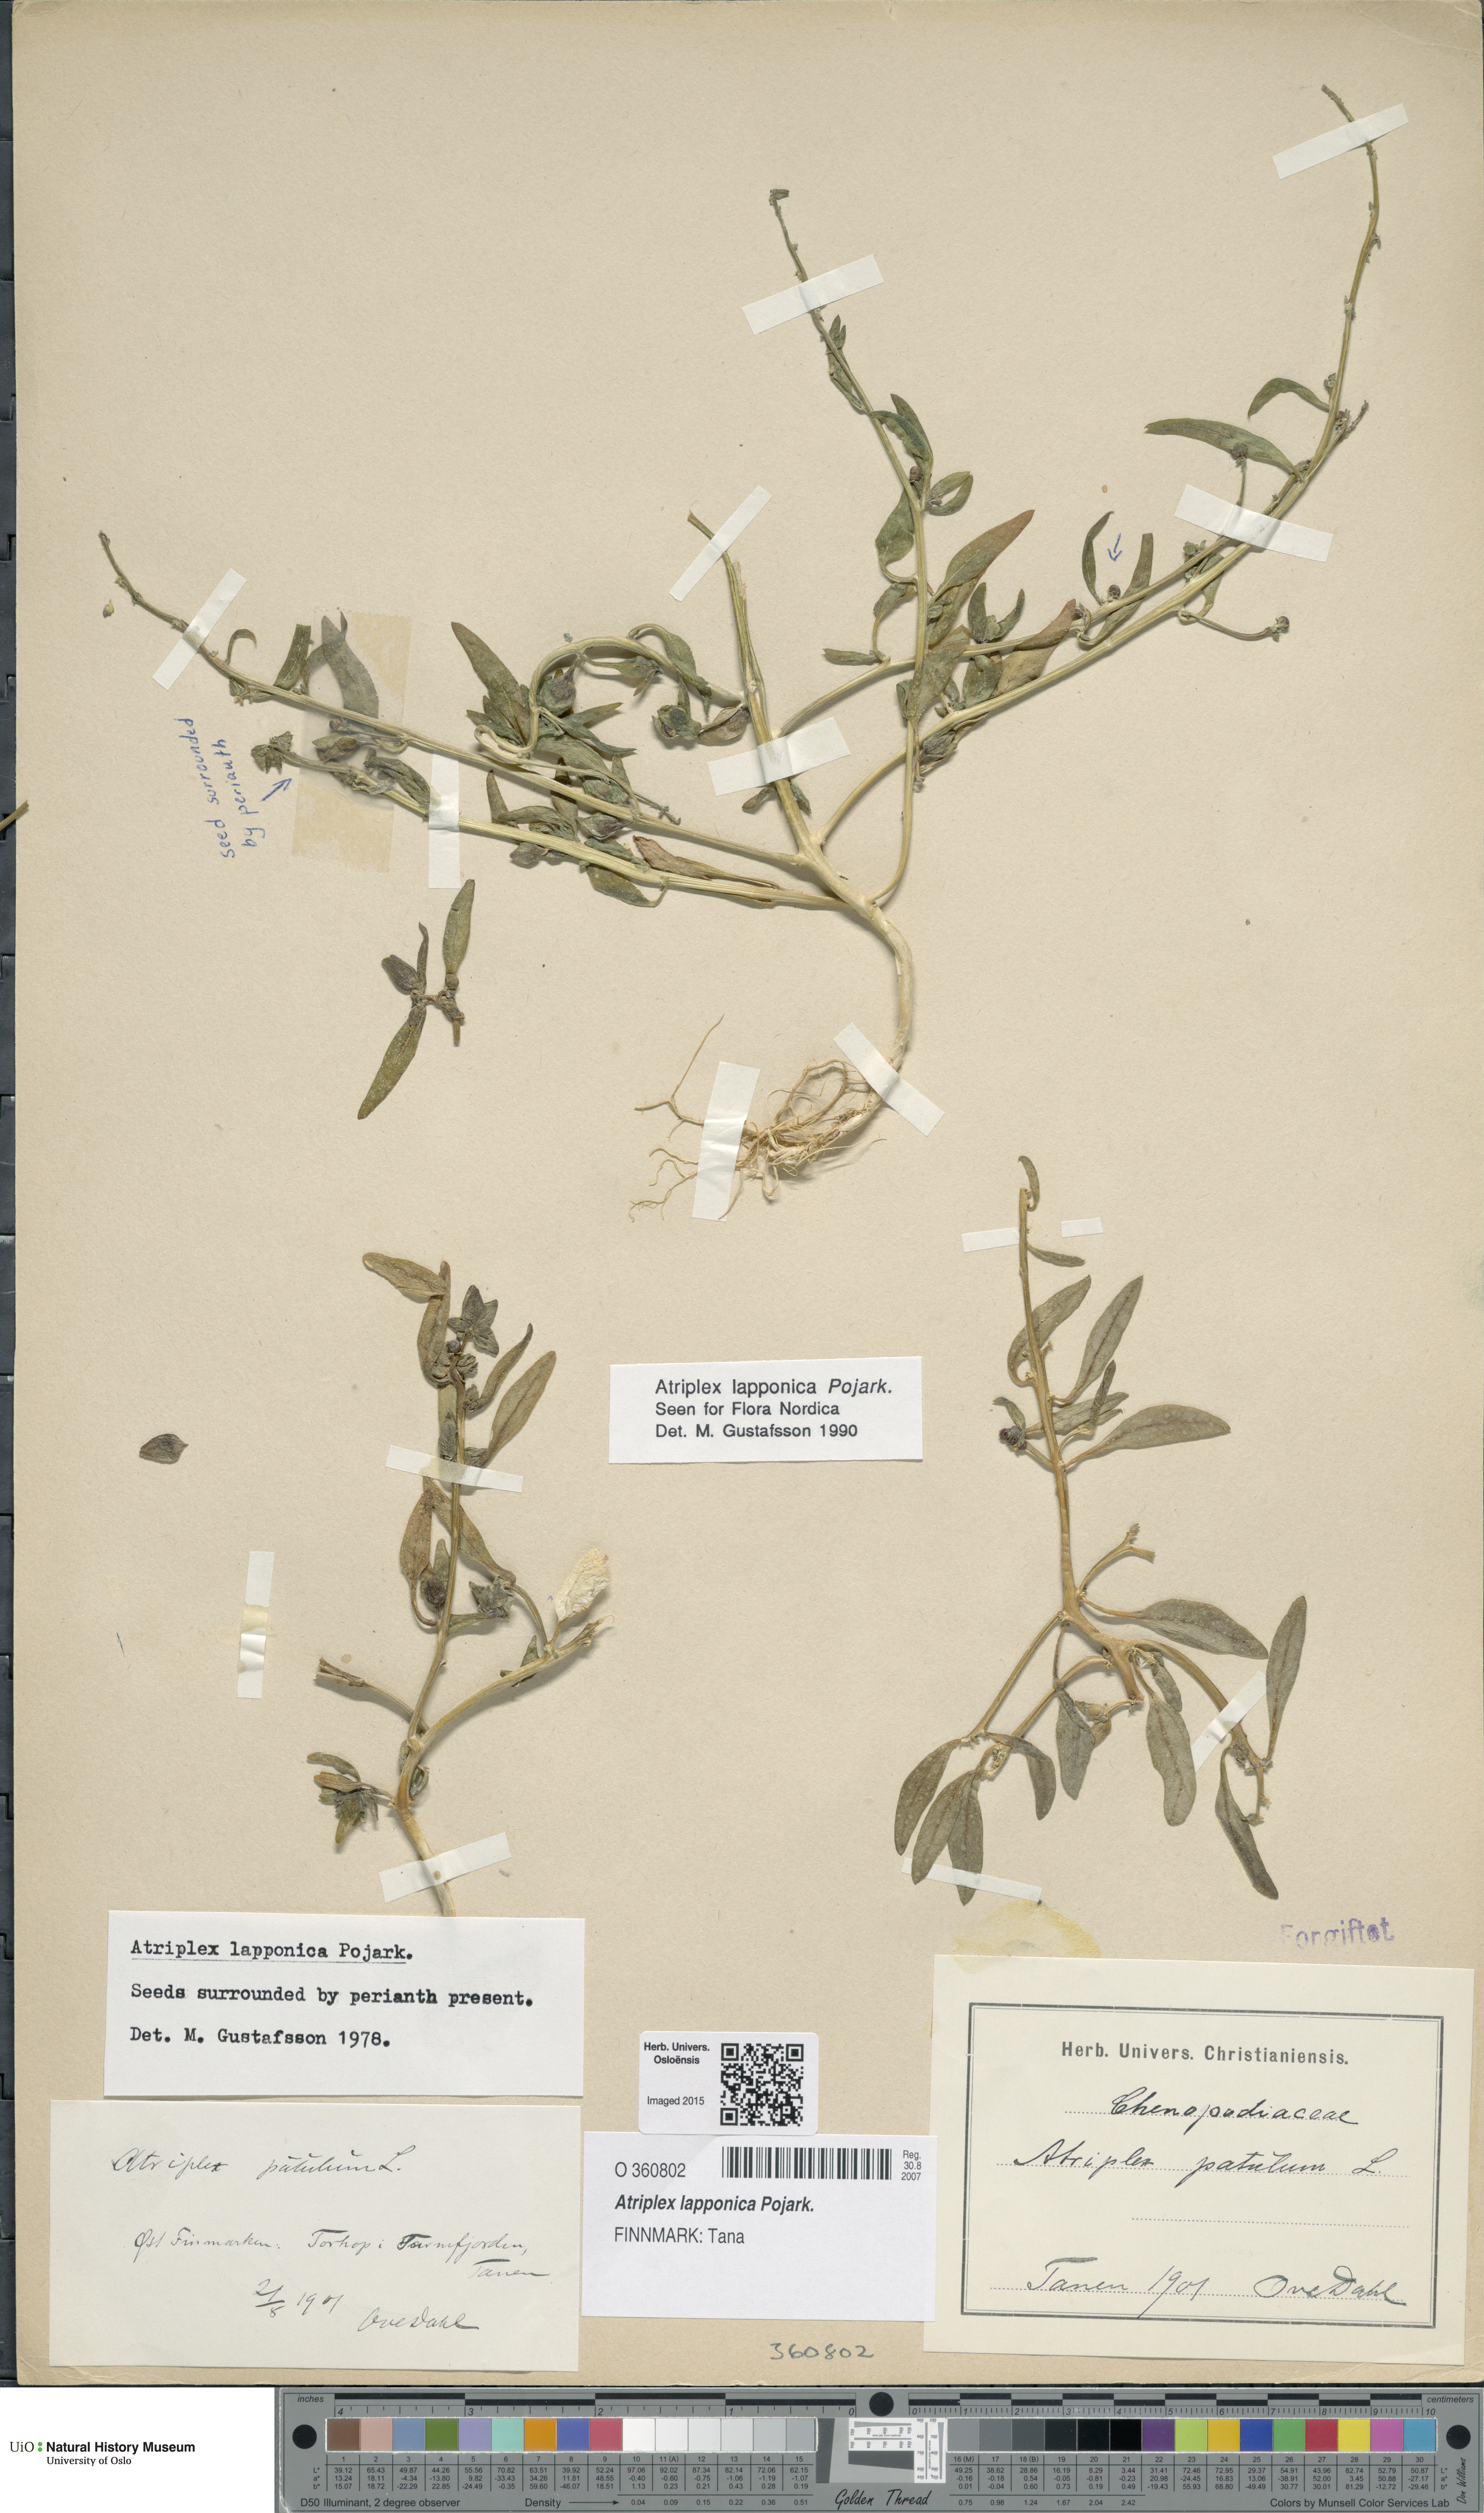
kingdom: Plantae
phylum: Tracheophyta
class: Magnoliopsida
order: Caryophyllales
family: Amaranthaceae
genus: Atriplex
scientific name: Atriplex nudicaulis
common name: Baltic orache
